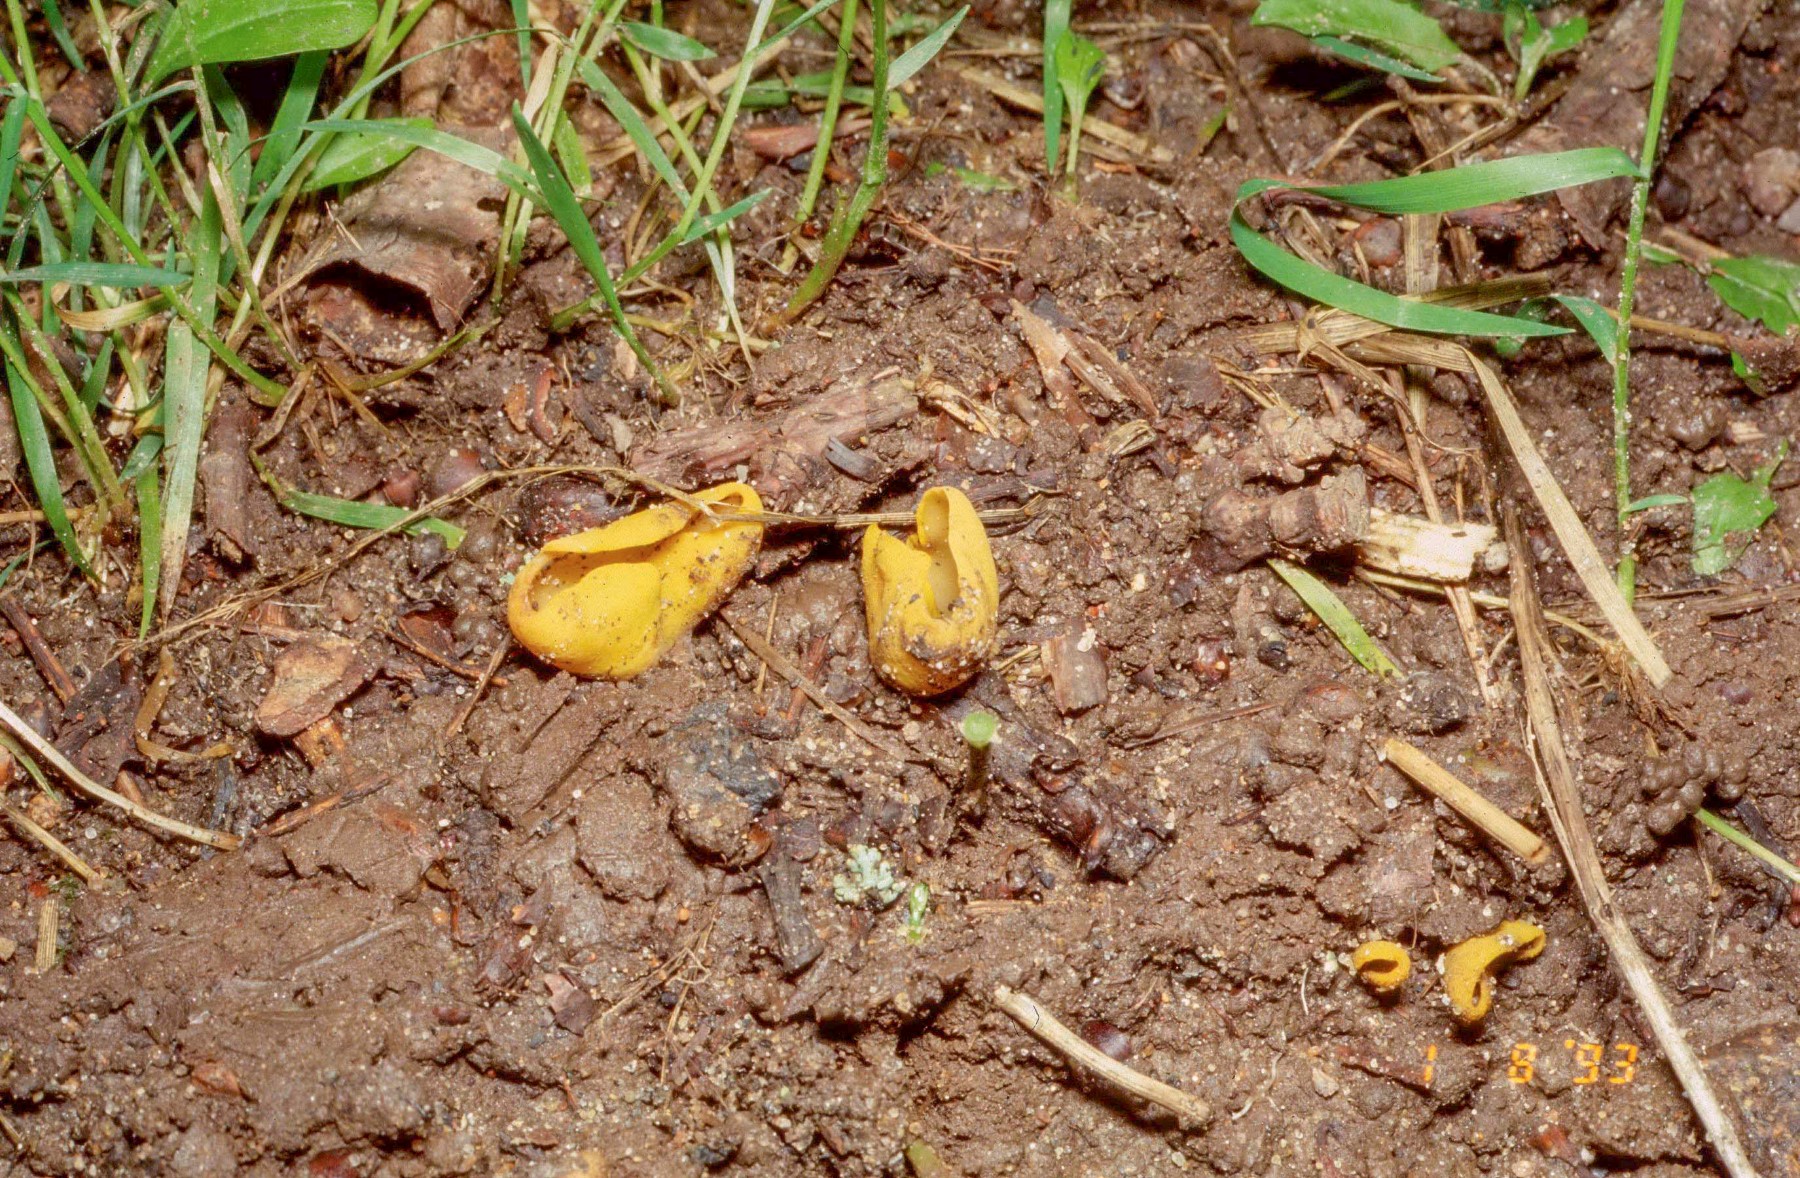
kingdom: Fungi
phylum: Ascomycota
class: Pezizomycetes
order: Pezizales
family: Otideaceae
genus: Otidea
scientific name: Otidea cantharella
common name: citrongul ørebæger
